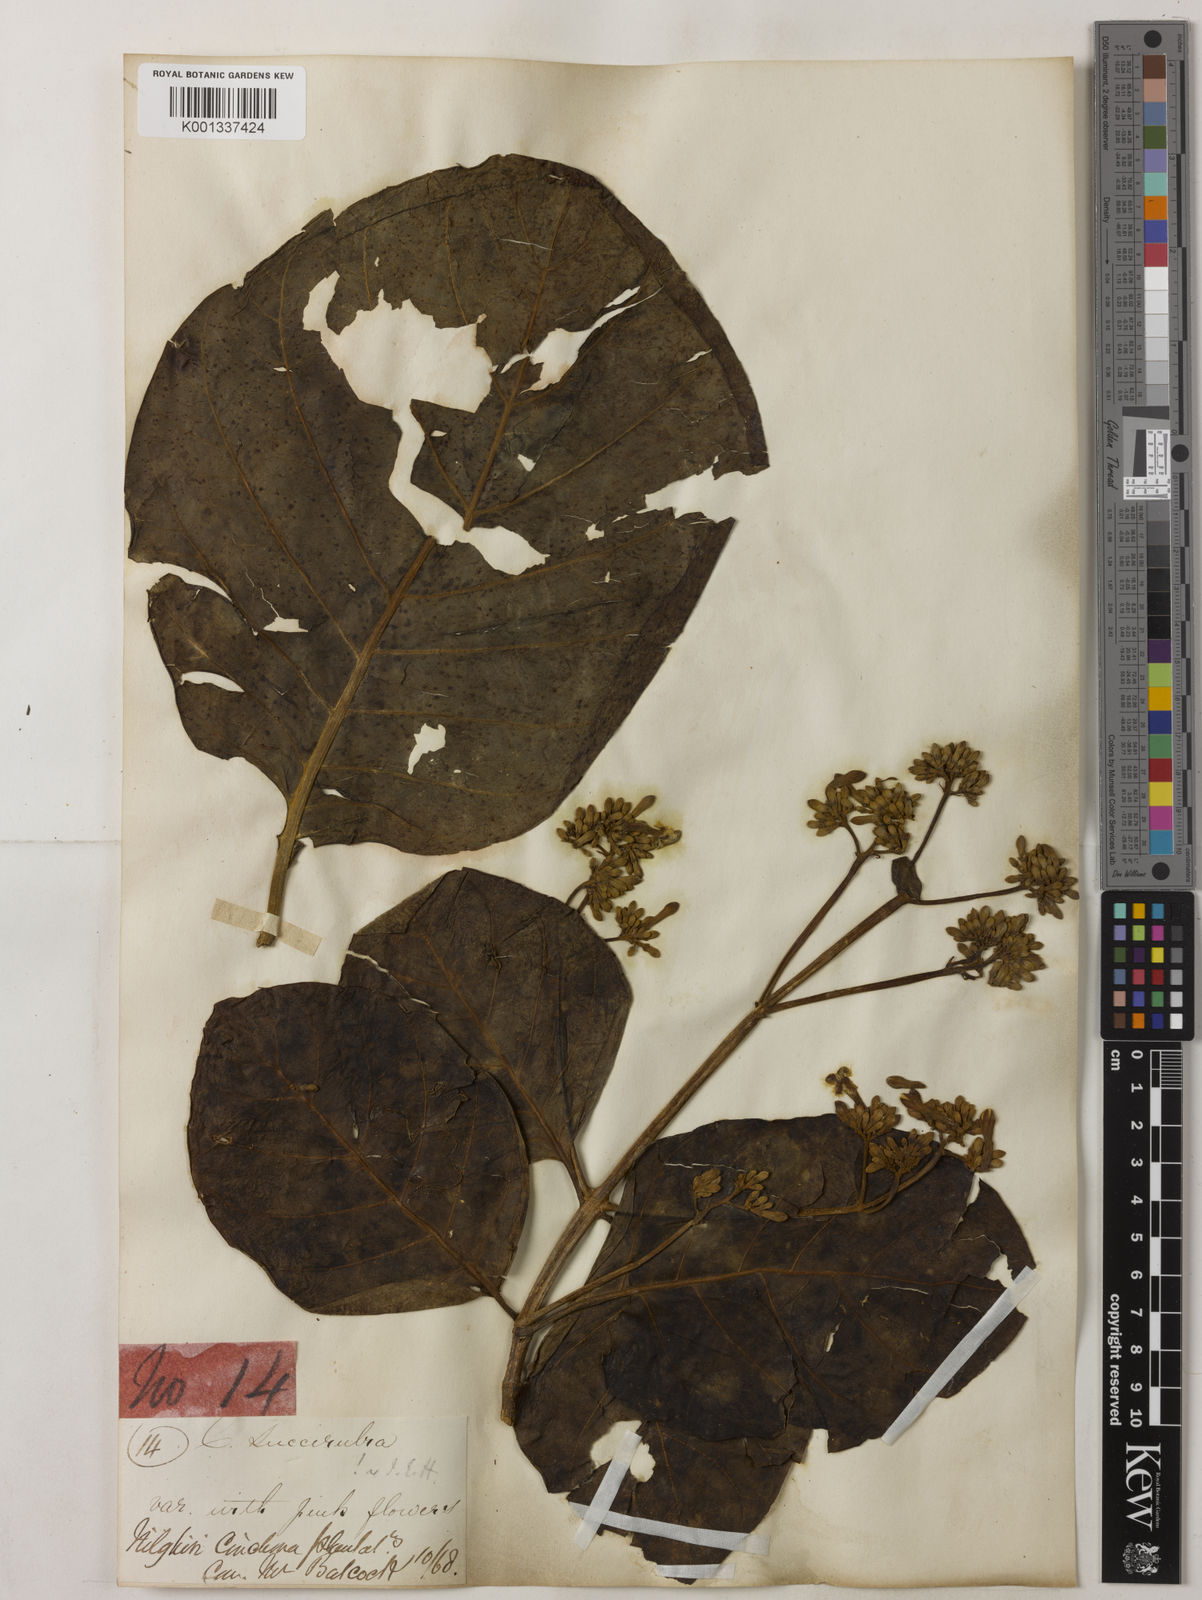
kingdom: Plantae
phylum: Tracheophyta
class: Magnoliopsida
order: Gentianales
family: Rubiaceae
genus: Cinchona
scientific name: Cinchona pubescens
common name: Quinine
